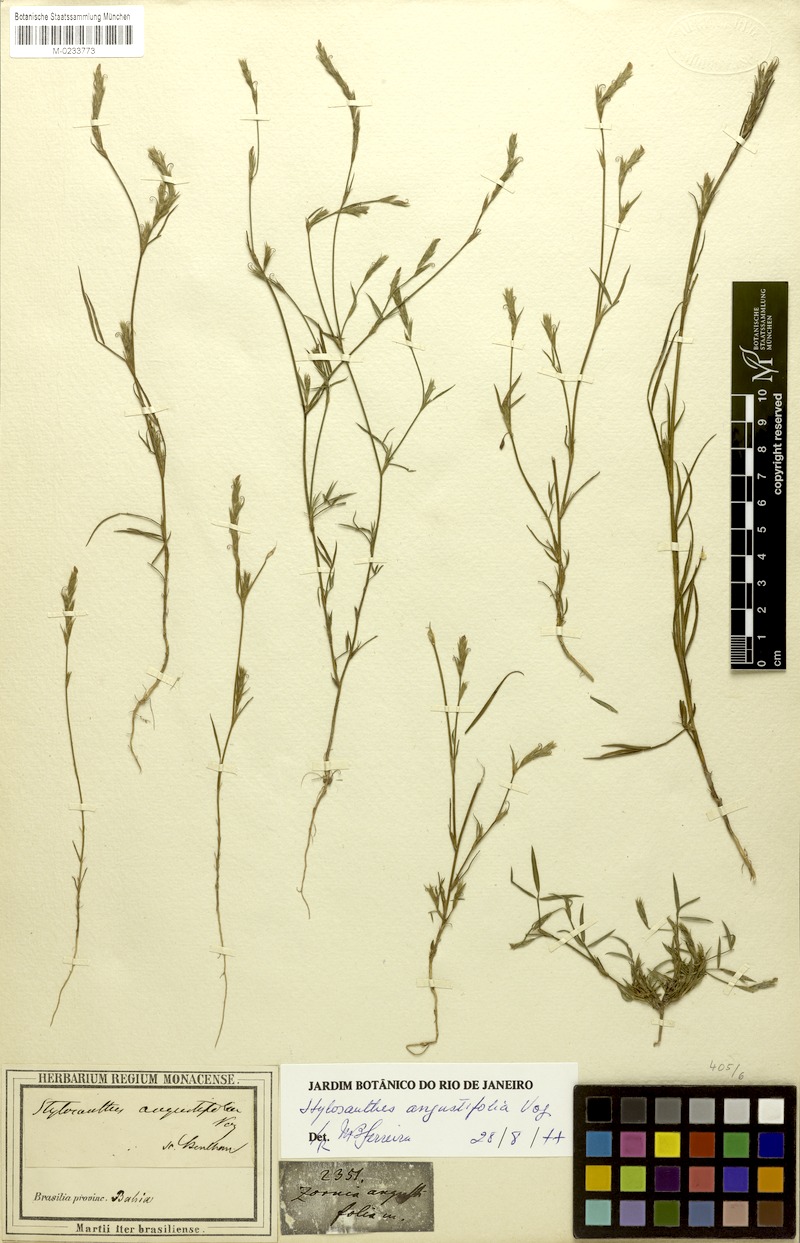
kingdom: Plantae
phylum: Tracheophyta
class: Magnoliopsida
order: Fabales
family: Fabaceae
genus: Stylosanthes
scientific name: Stylosanthes angustifolia
